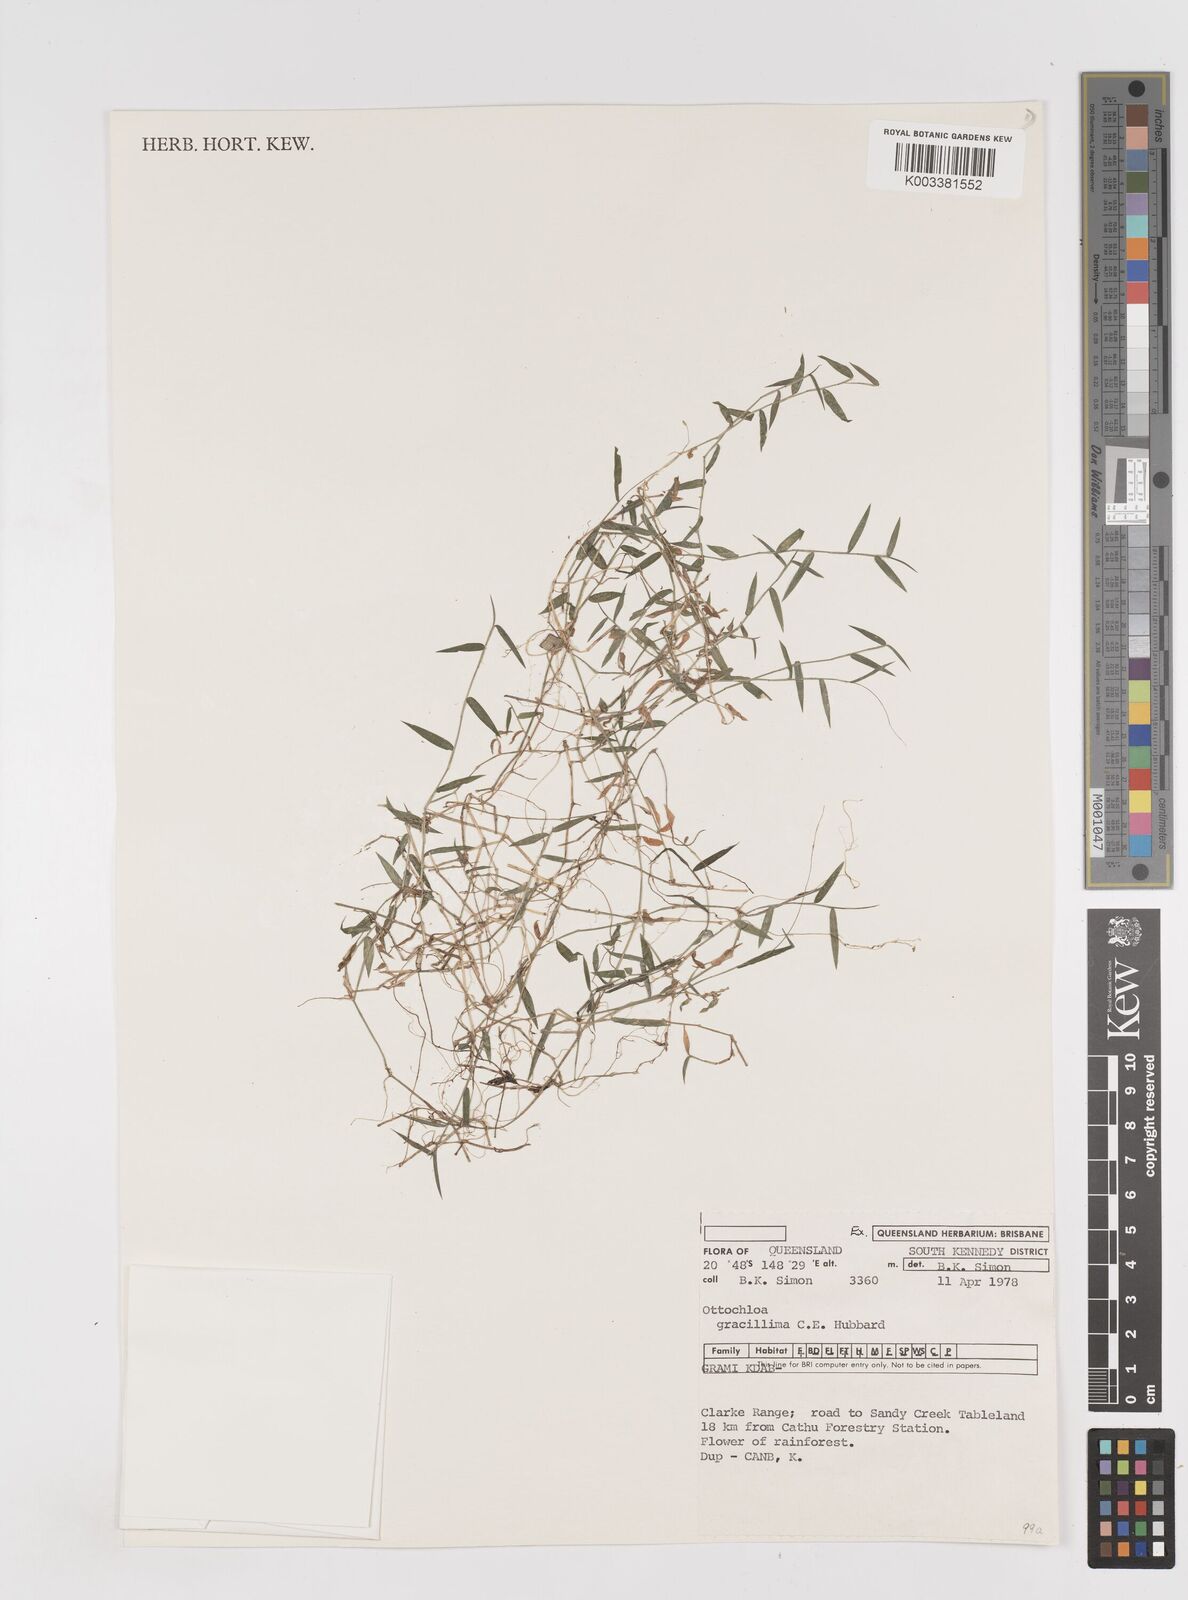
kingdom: Plantae
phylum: Tracheophyta
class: Liliopsida
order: Poales
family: Poaceae
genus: Ottochloa
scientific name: Ottochloa gracillima
